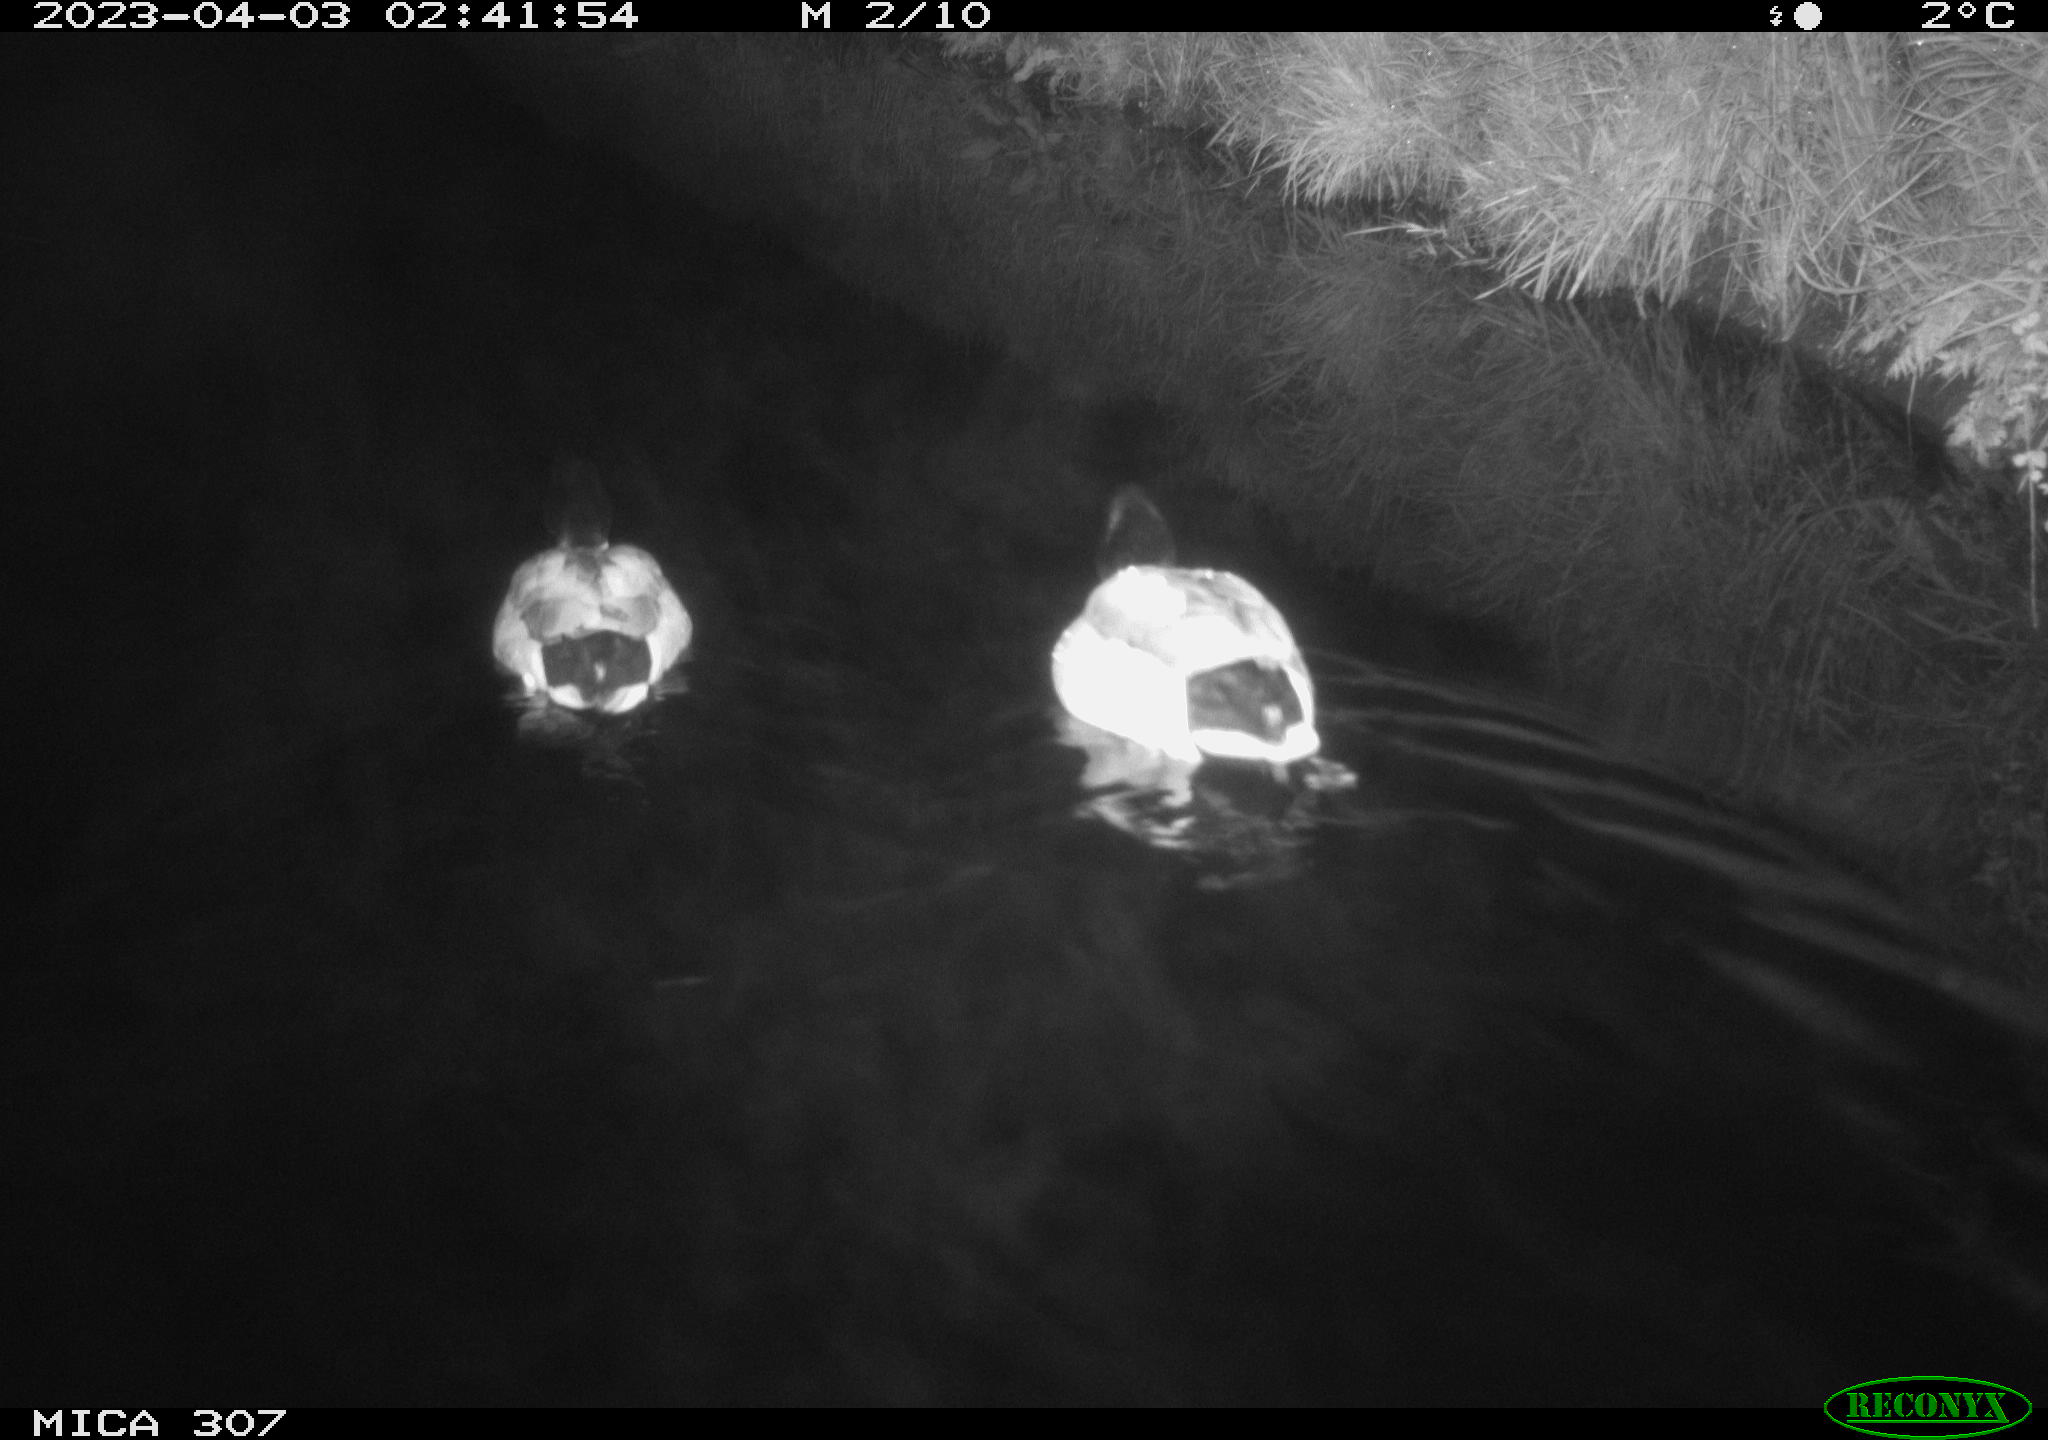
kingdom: Animalia
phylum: Chordata
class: Aves
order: Anseriformes
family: Anatidae
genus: Anas
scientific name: Anas
